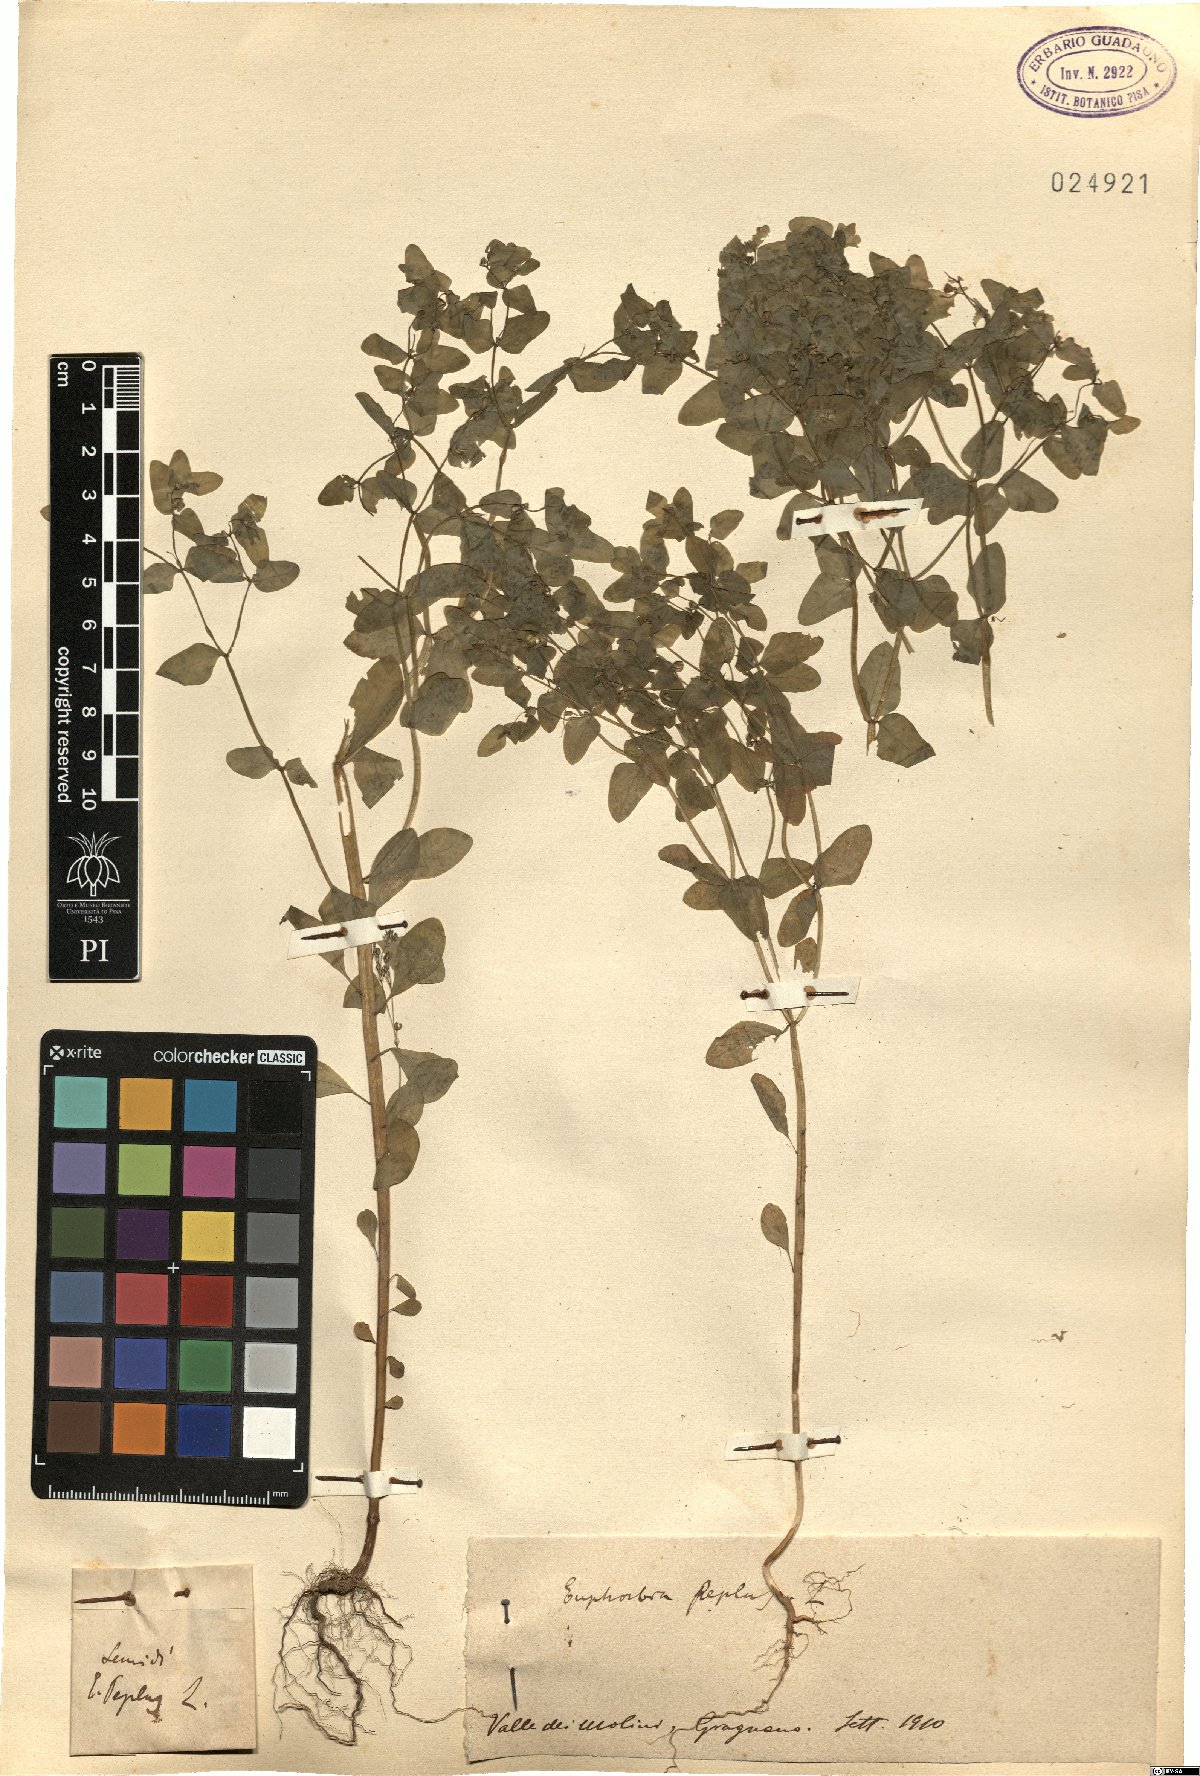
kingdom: Plantae
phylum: Tracheophyta
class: Magnoliopsida
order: Malpighiales
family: Euphorbiaceae
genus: Euphorbia
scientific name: Euphorbia peplus
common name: Petty spurge
